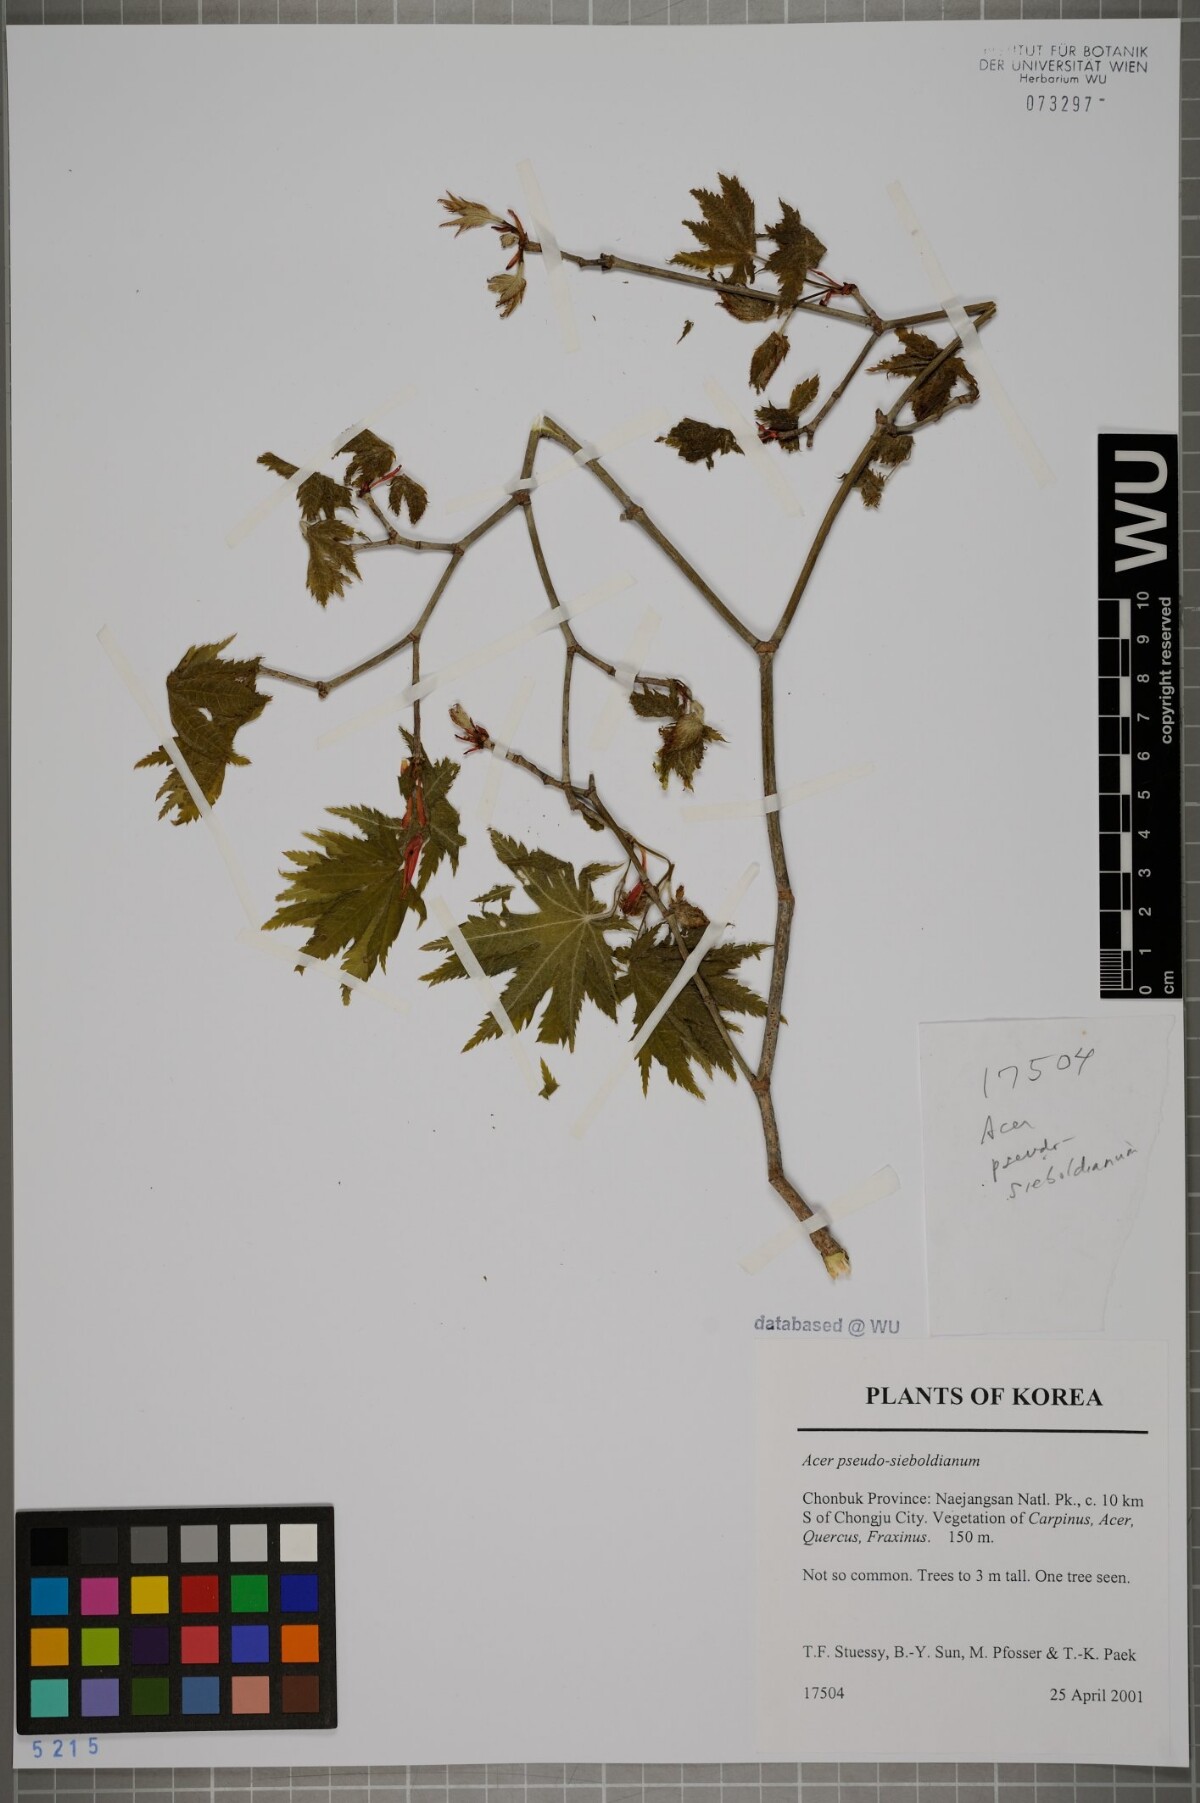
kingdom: Plantae
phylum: Tracheophyta
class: Magnoliopsida
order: Sapindales
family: Sapindaceae
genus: Acer
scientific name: Acer pseudosieboldianum
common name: Korean maple
